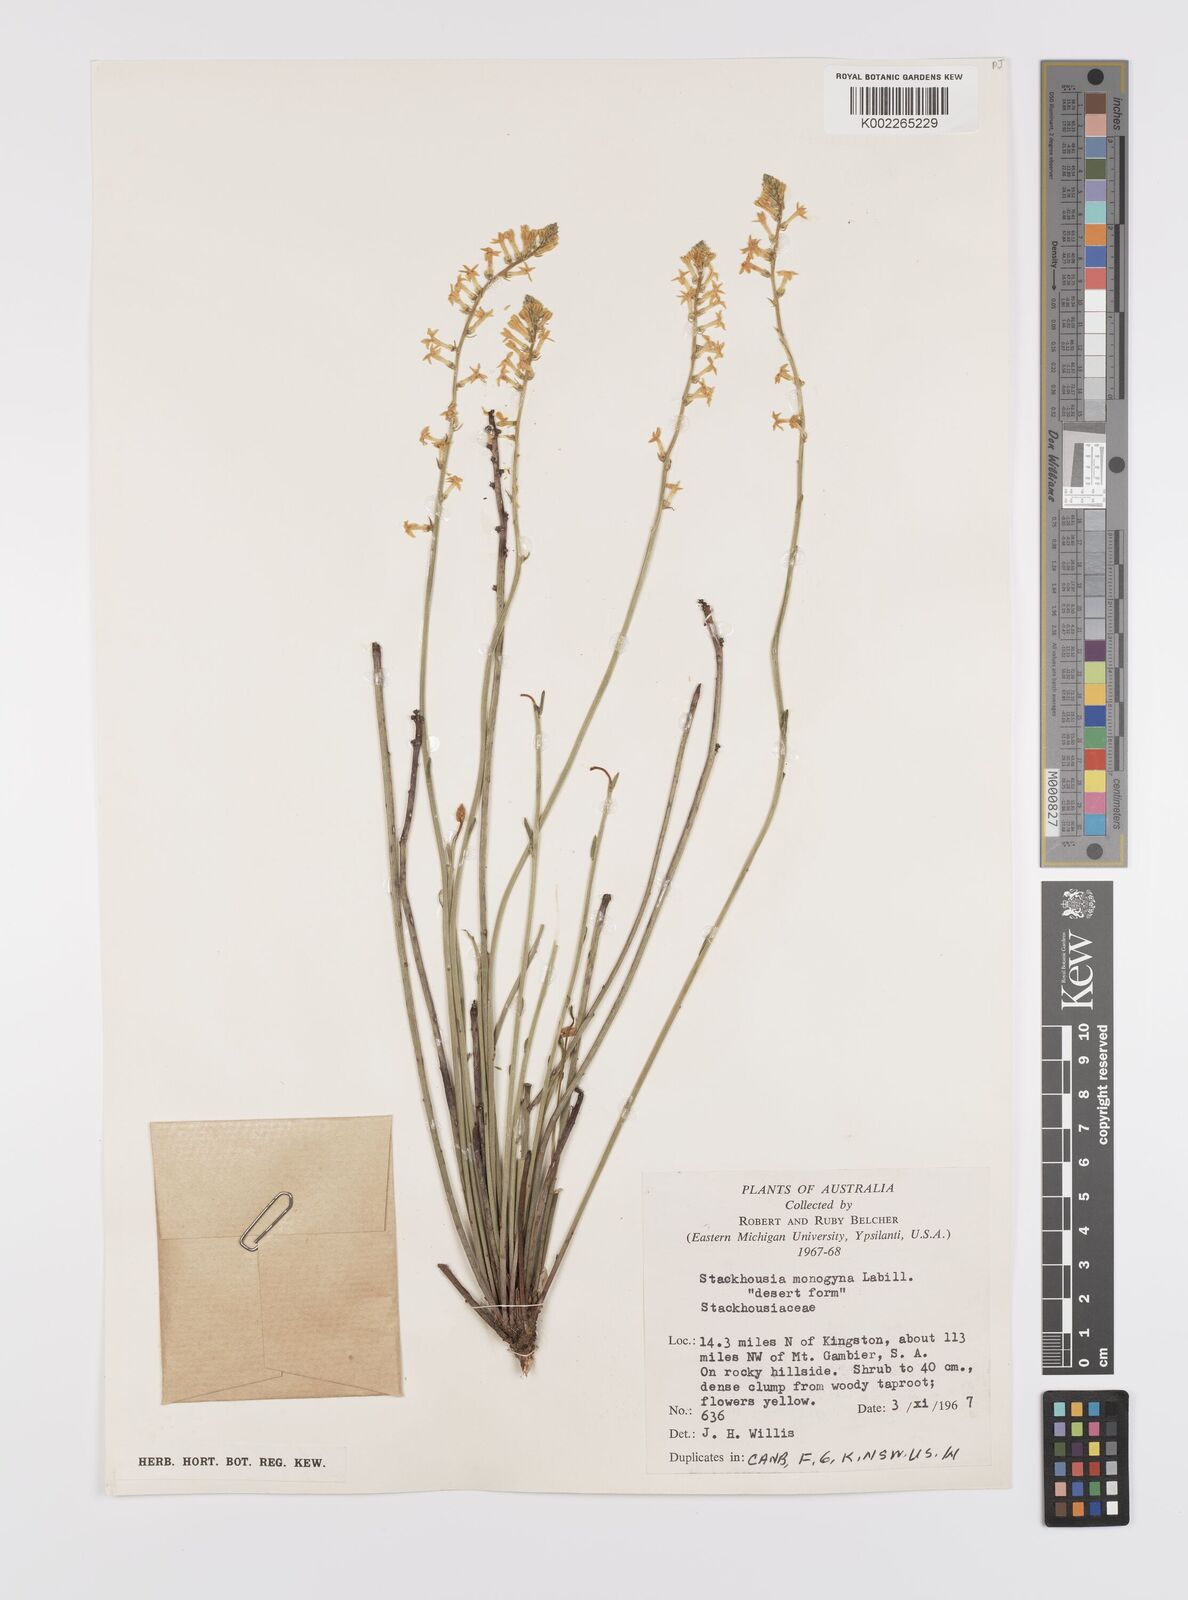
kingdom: Plantae
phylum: Tracheophyta
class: Magnoliopsida
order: Celastrales
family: Celastraceae
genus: Stackhousia
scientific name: Stackhousia monogyna
